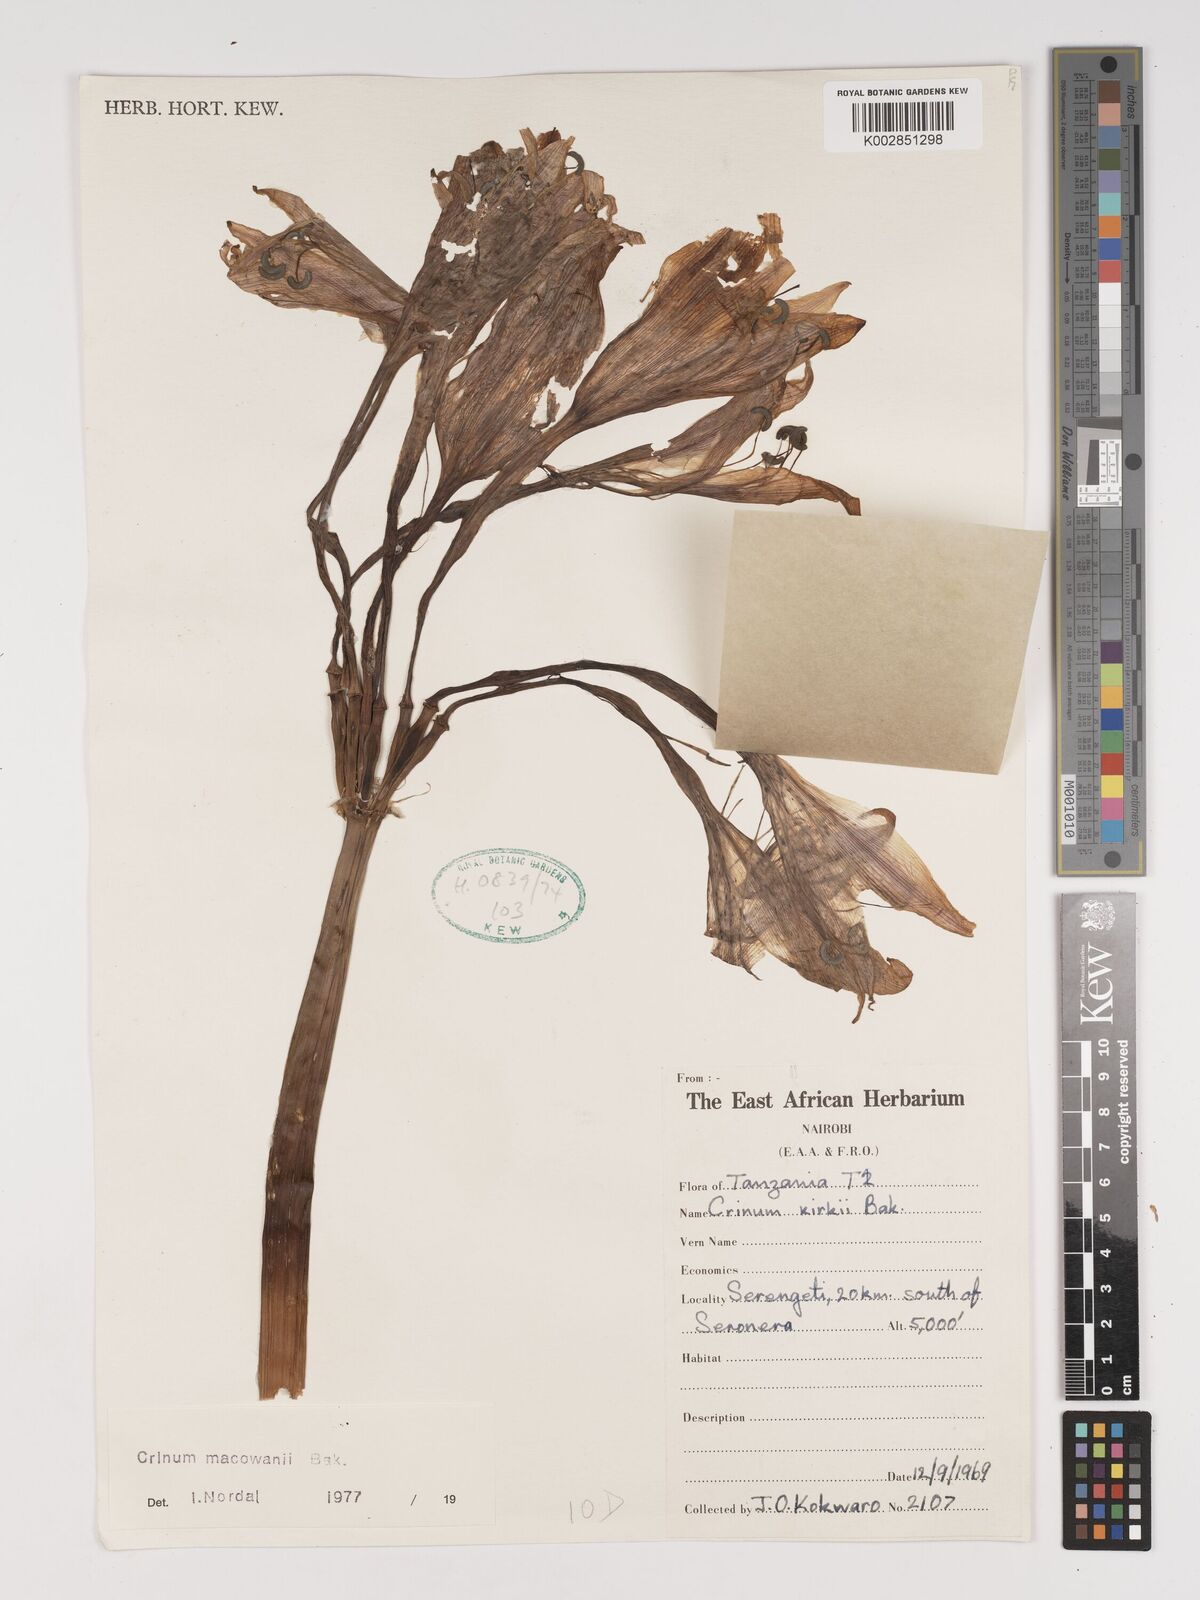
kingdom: Plantae
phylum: Tracheophyta
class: Liliopsida
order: Asparagales
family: Amaryllidaceae
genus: Crinum
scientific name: Crinum macowanii
